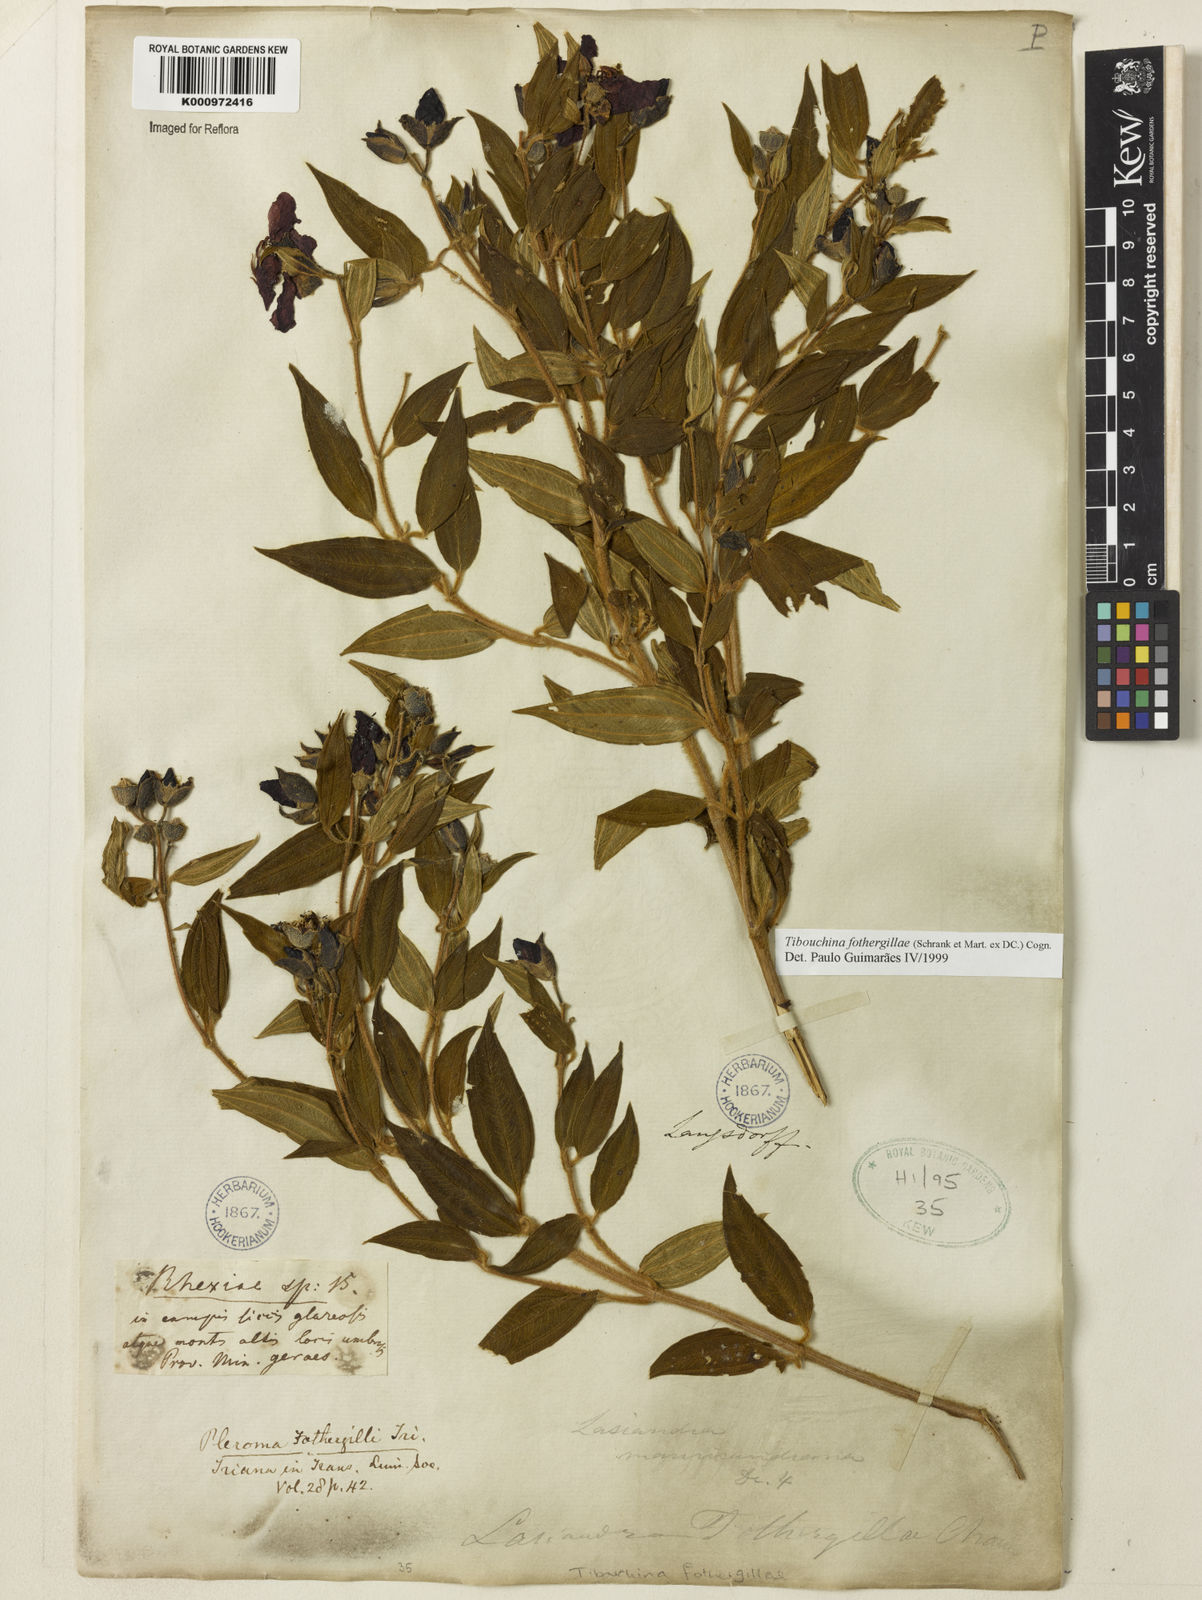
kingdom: Plantae
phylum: Tracheophyta
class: Magnoliopsida
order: Myrtales
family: Melastomataceae
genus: Pleroma
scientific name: Pleroma fothergillae
